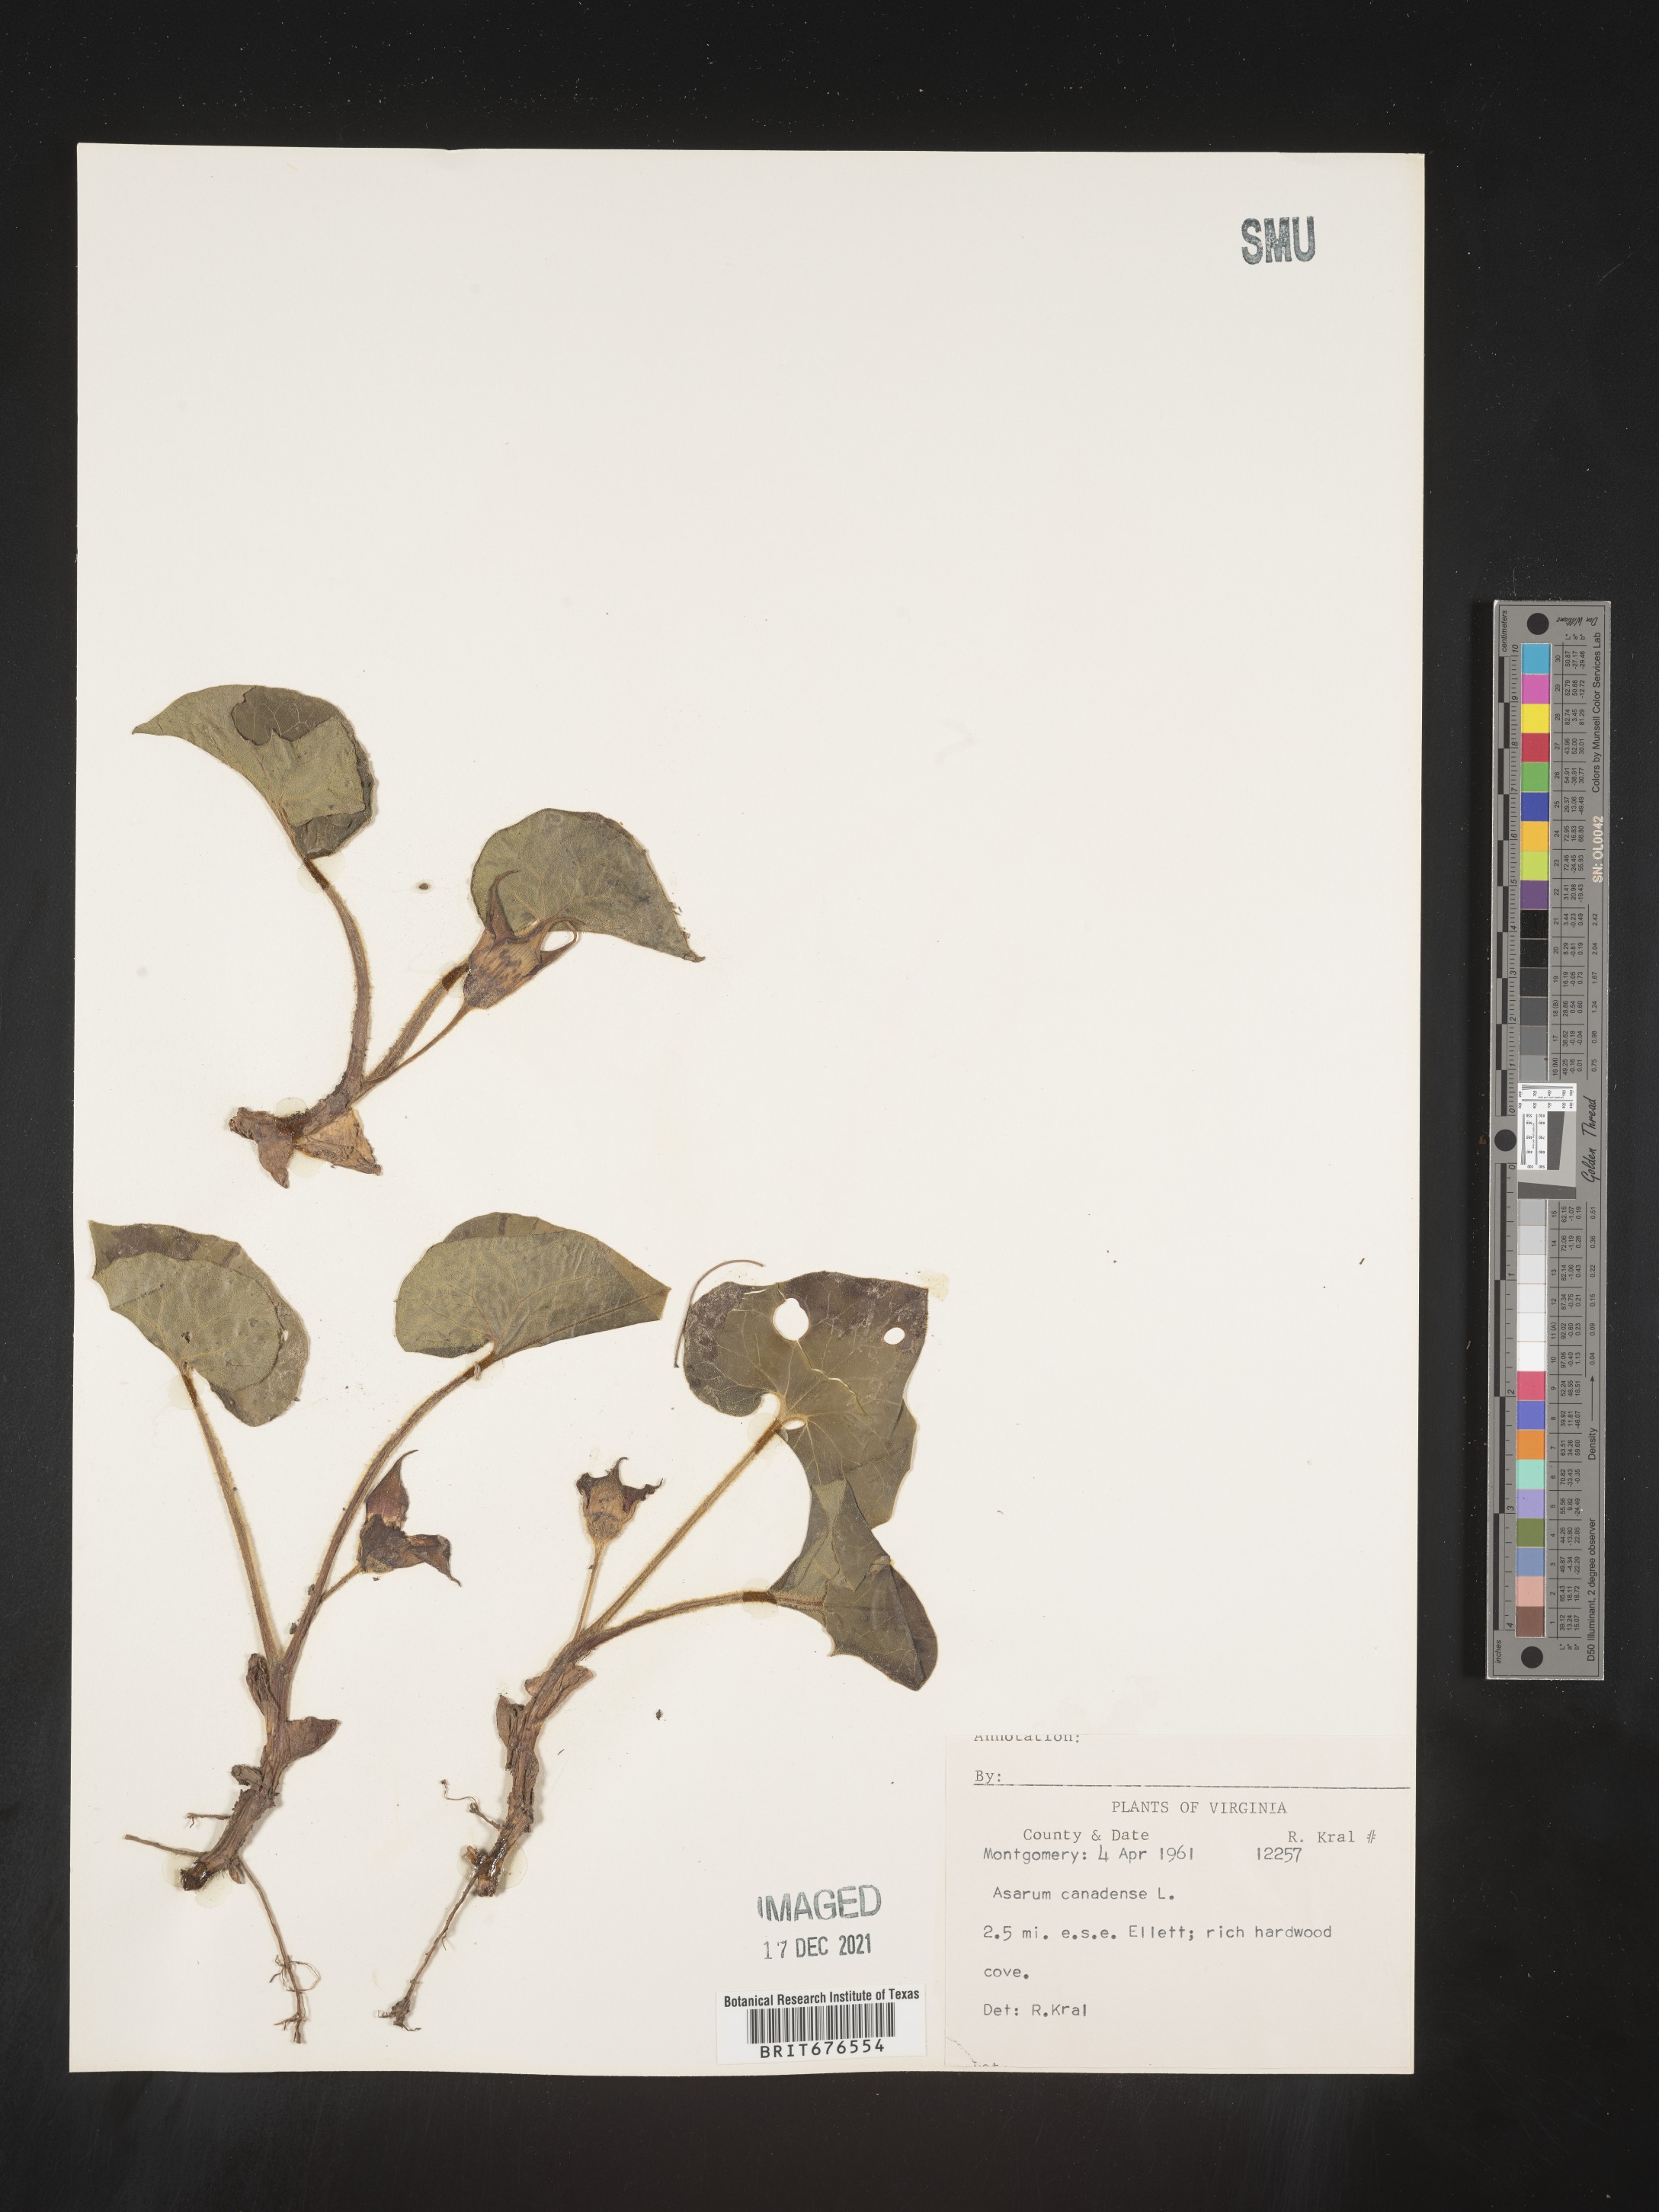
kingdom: Plantae
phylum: Tracheophyta
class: Magnoliopsida
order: Piperales
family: Aristolochiaceae
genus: Asarum
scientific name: Asarum canadense
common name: Wild ginger
